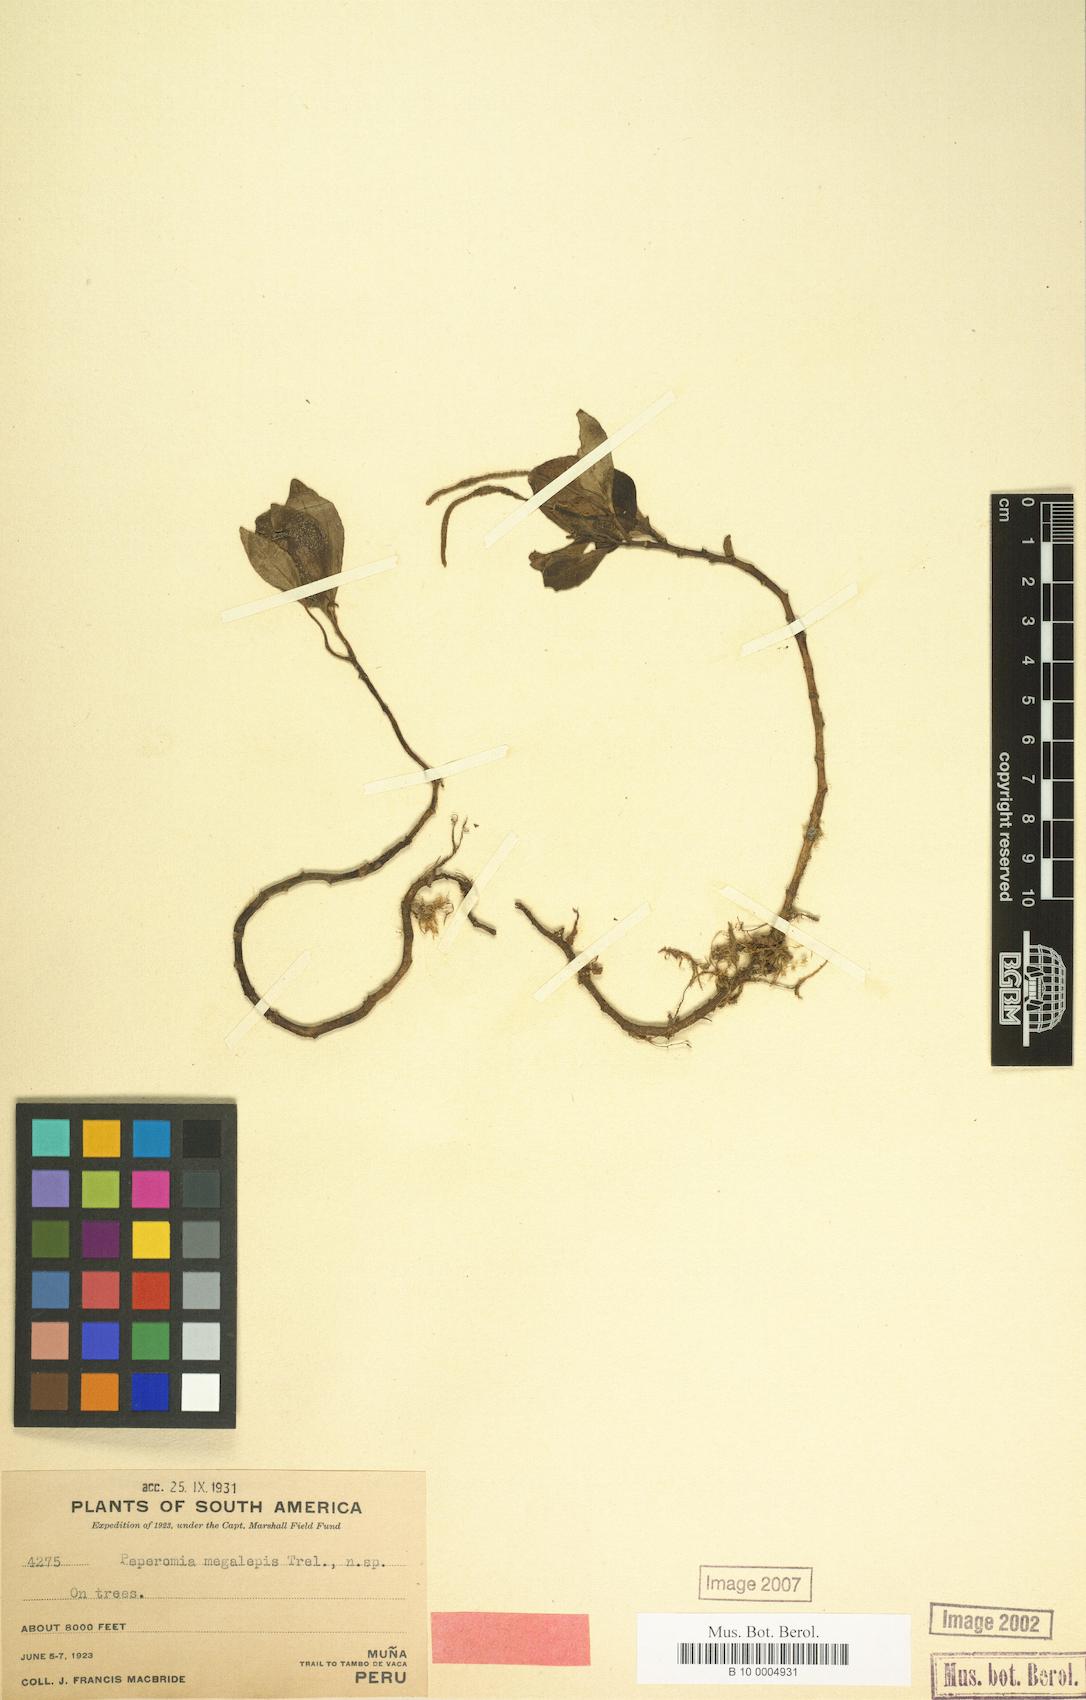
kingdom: Plantae
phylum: Tracheophyta
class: Magnoliopsida
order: Piperales
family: Piperaceae
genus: Peperomia
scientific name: Peperomia megalepis
